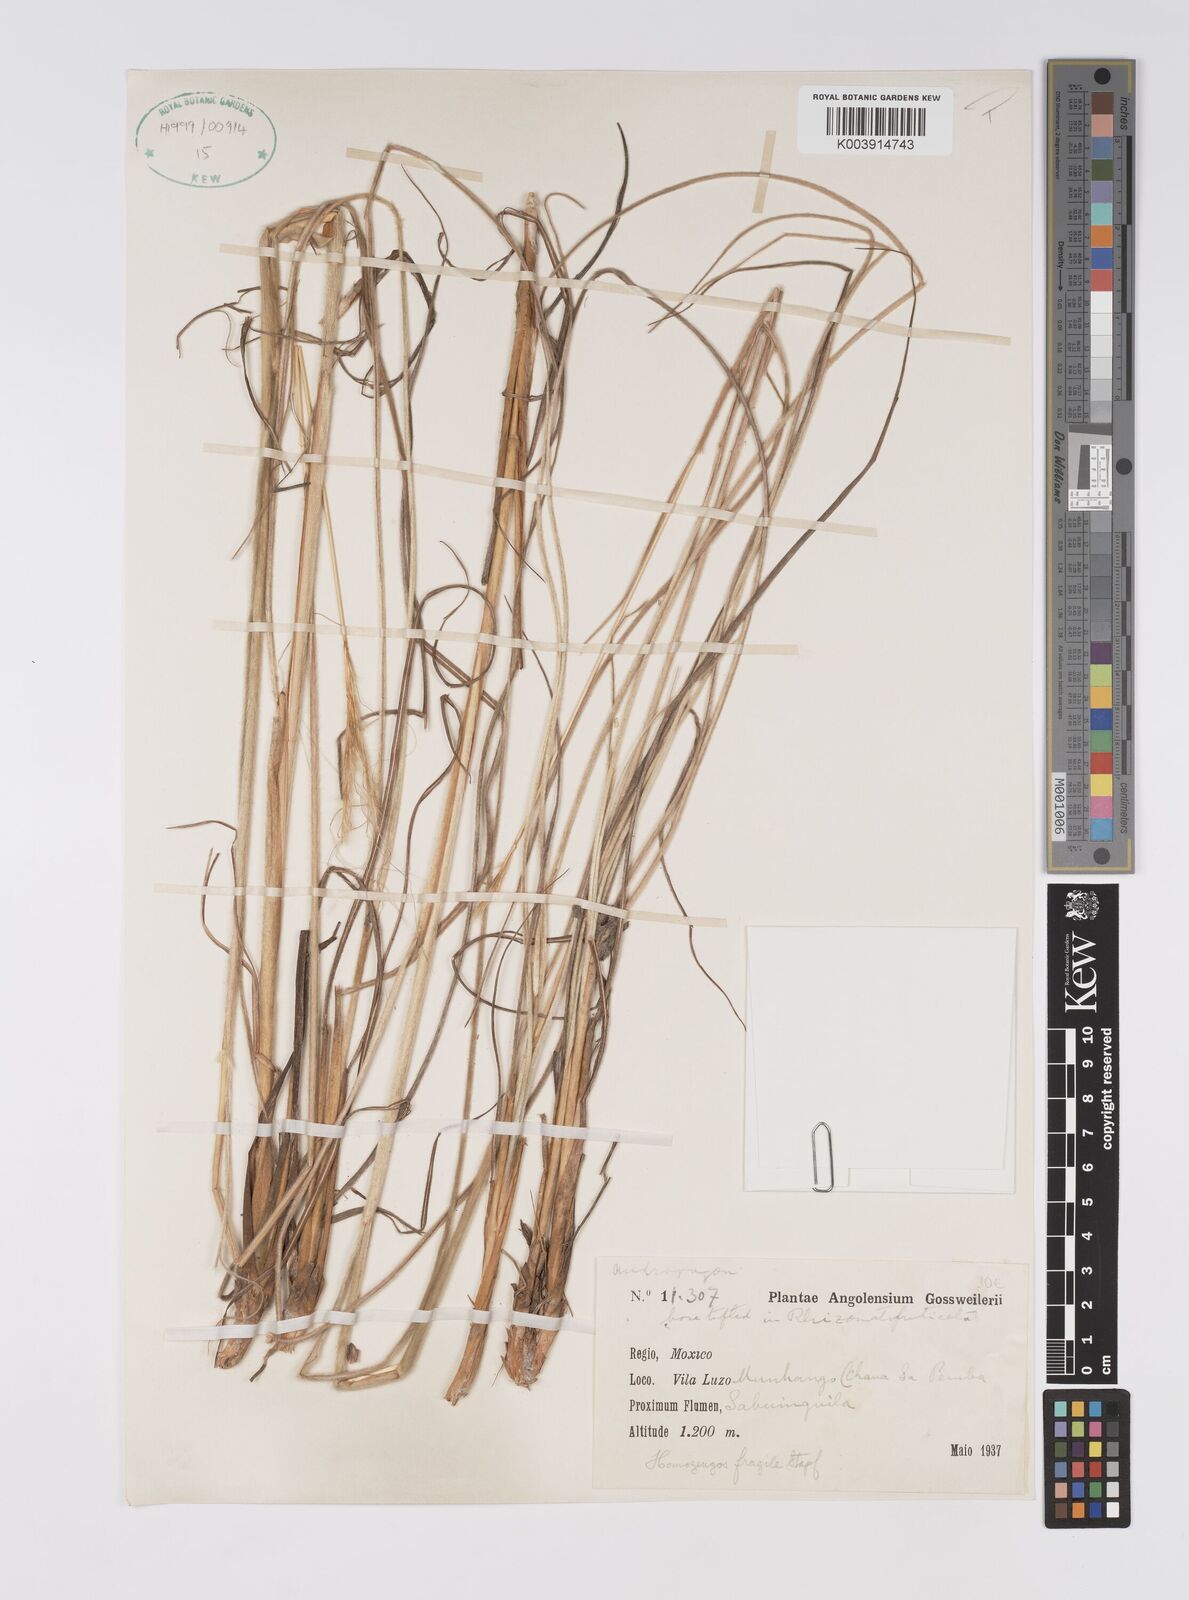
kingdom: Plantae
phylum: Tracheophyta
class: Liliopsida
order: Poales
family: Poaceae
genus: Homozeugos
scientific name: Homozeugos fragile
